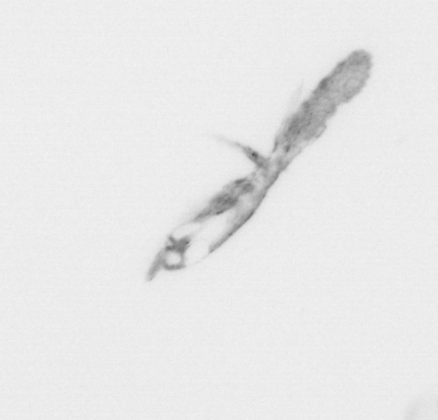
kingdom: Animalia
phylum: Arthropoda
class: Copepoda
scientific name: Copepoda
